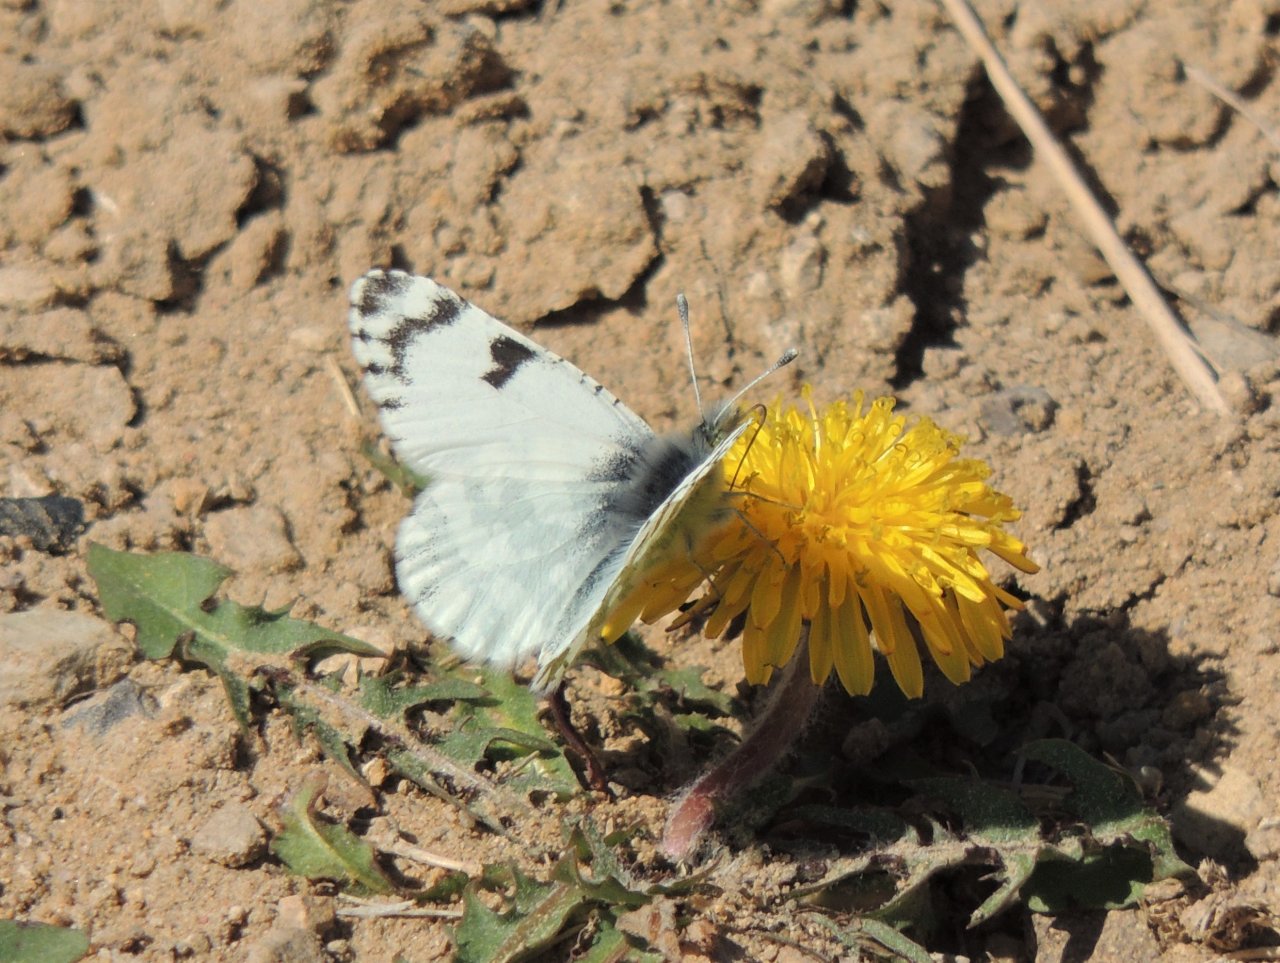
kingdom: Animalia
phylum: Arthropoda
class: Insecta
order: Lepidoptera
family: Pieridae
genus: Euchloe
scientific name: Euchloe lotta
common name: Desert Marble
